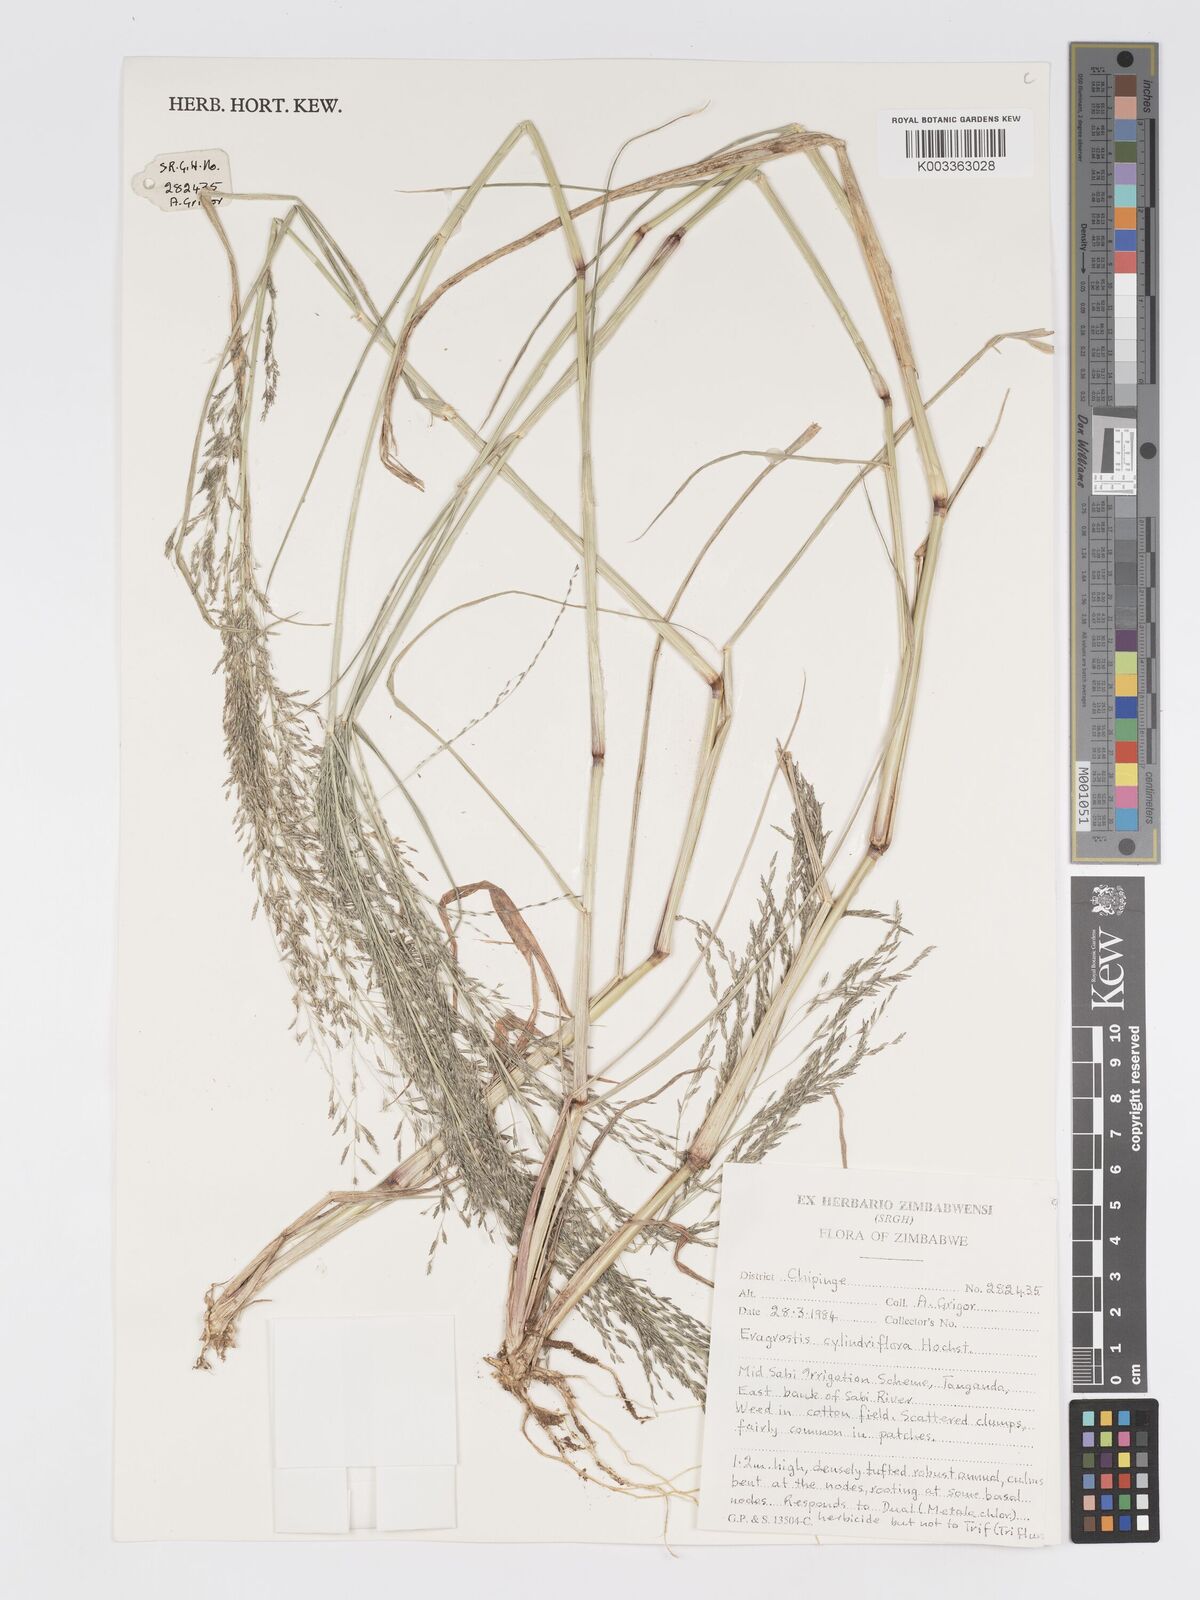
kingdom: Plantae
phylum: Tracheophyta
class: Liliopsida
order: Poales
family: Poaceae
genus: Eragrostis
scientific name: Eragrostis cylindriflora
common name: Cylinderflower lovegrass
